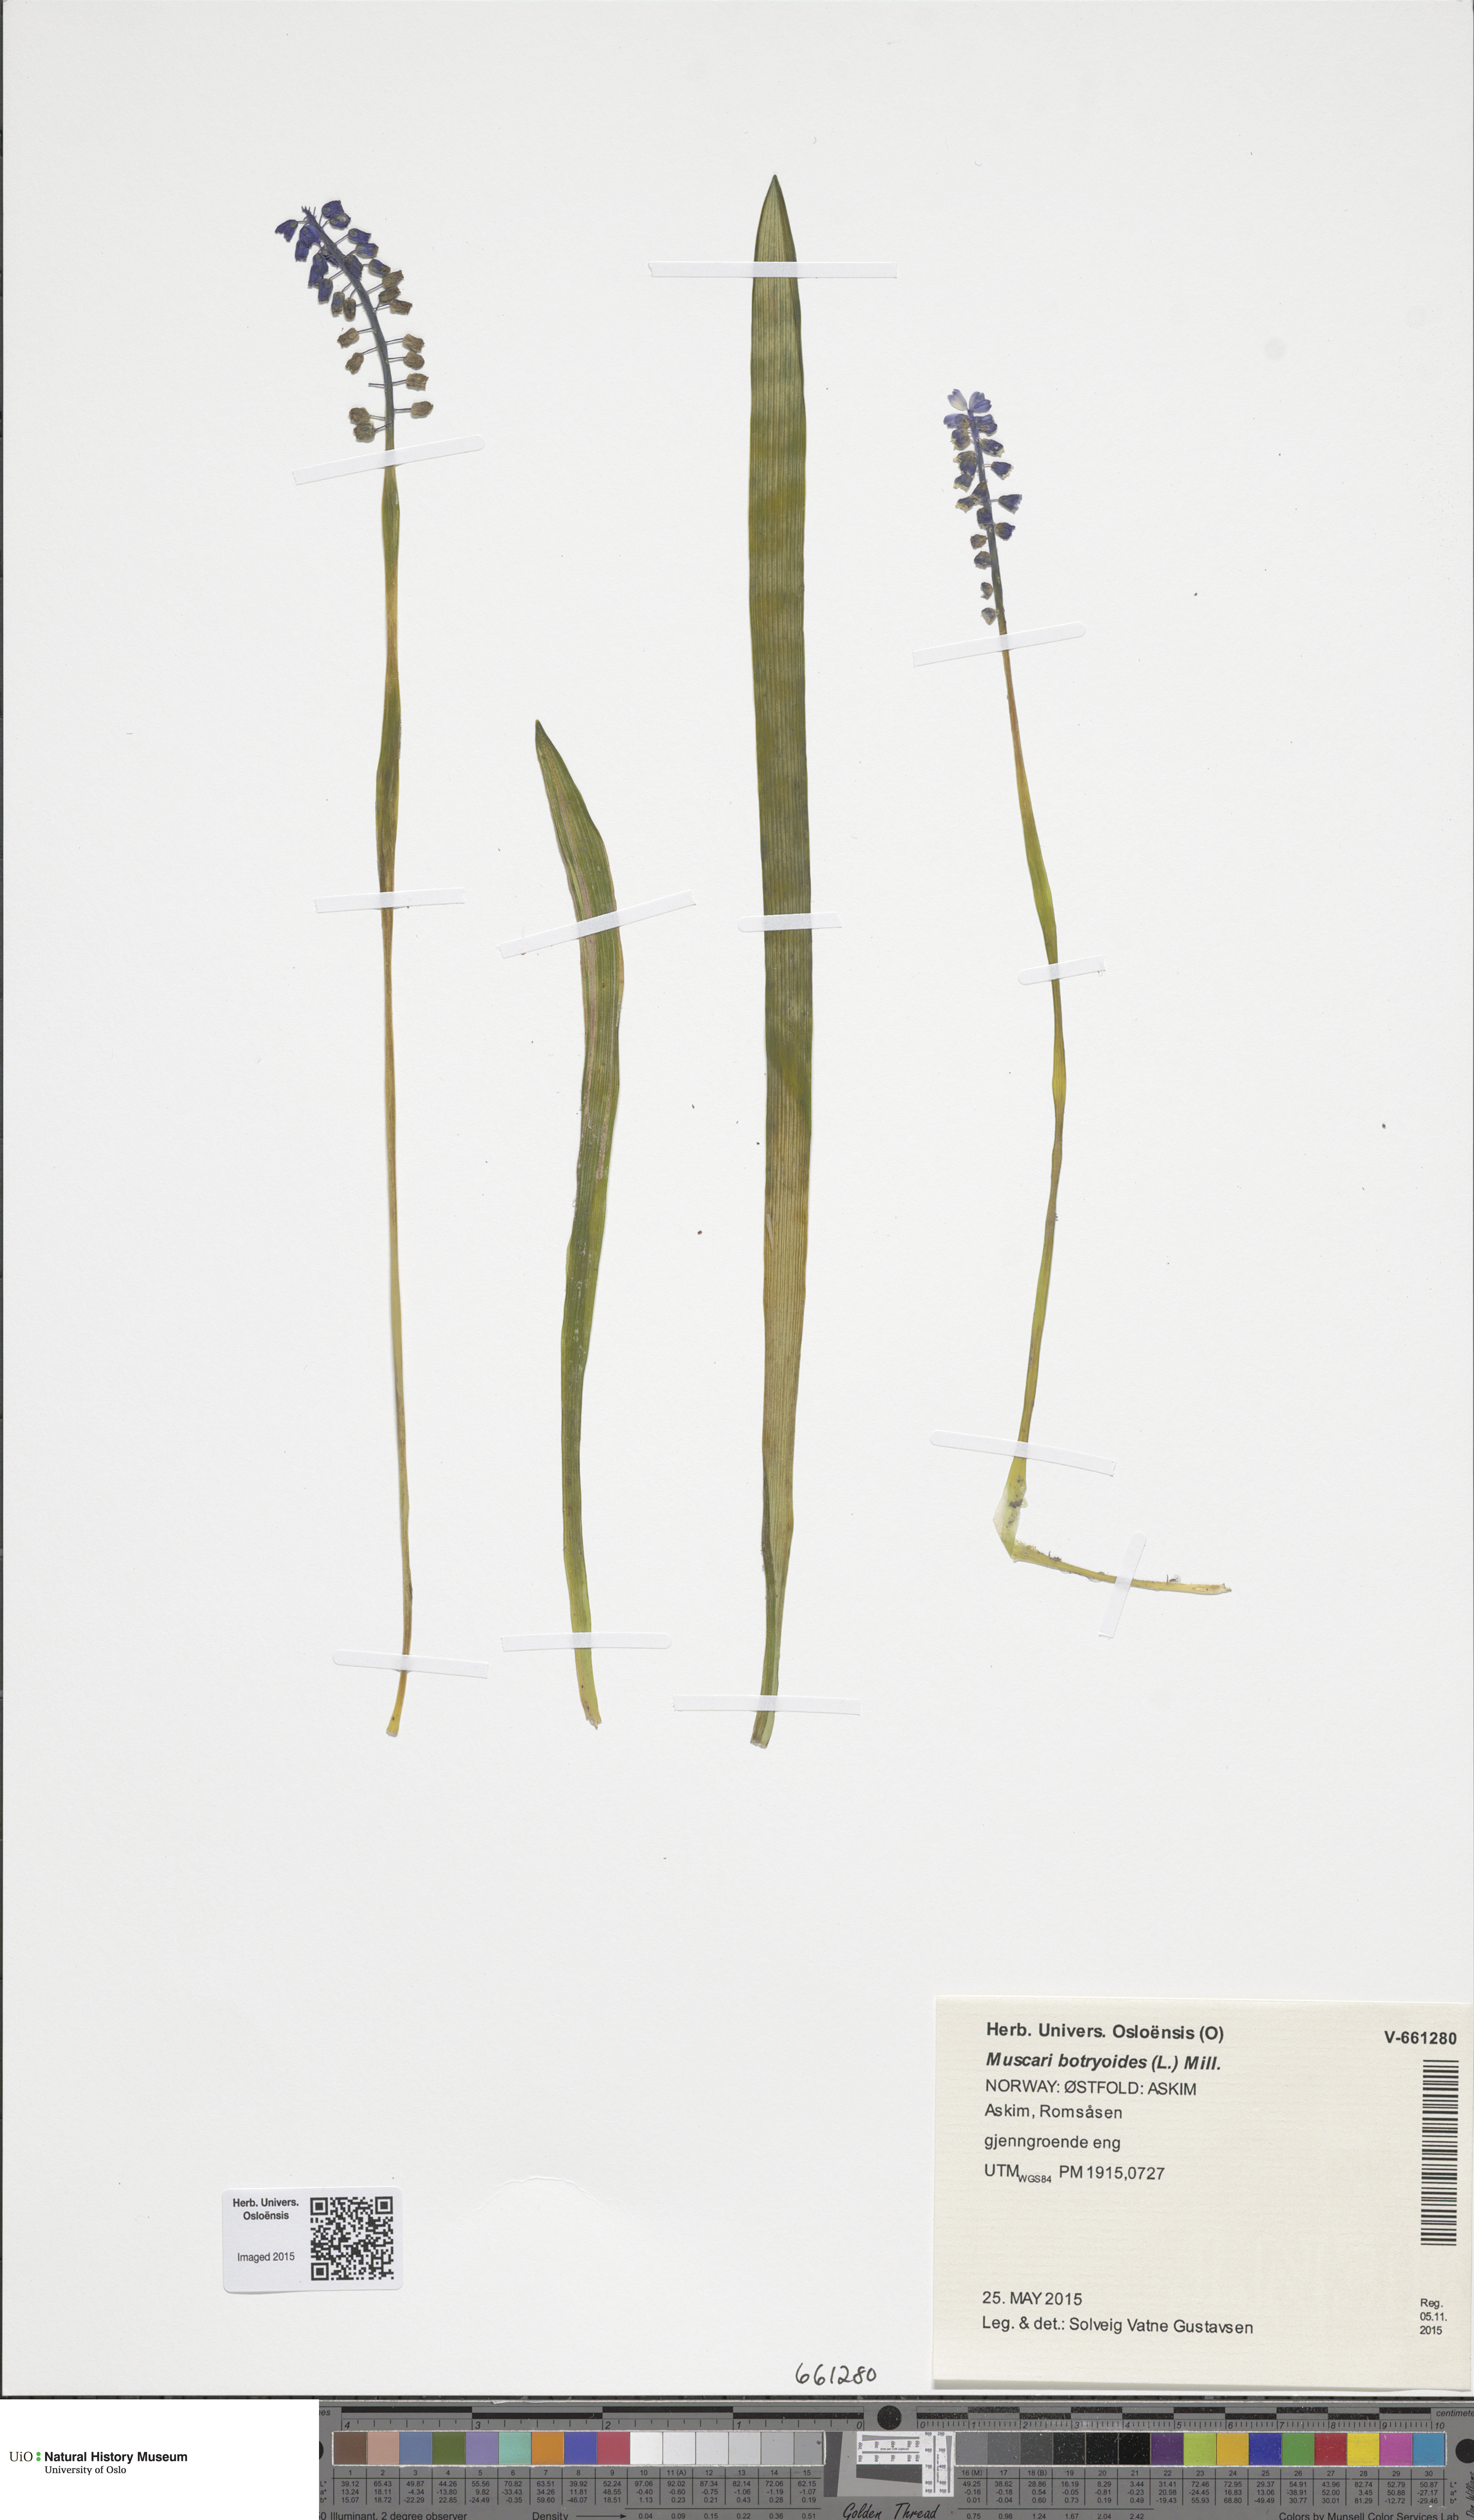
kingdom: Plantae
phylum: Tracheophyta
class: Liliopsida
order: Asparagales
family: Asparagaceae
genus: Muscari
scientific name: Muscari armeniacum
